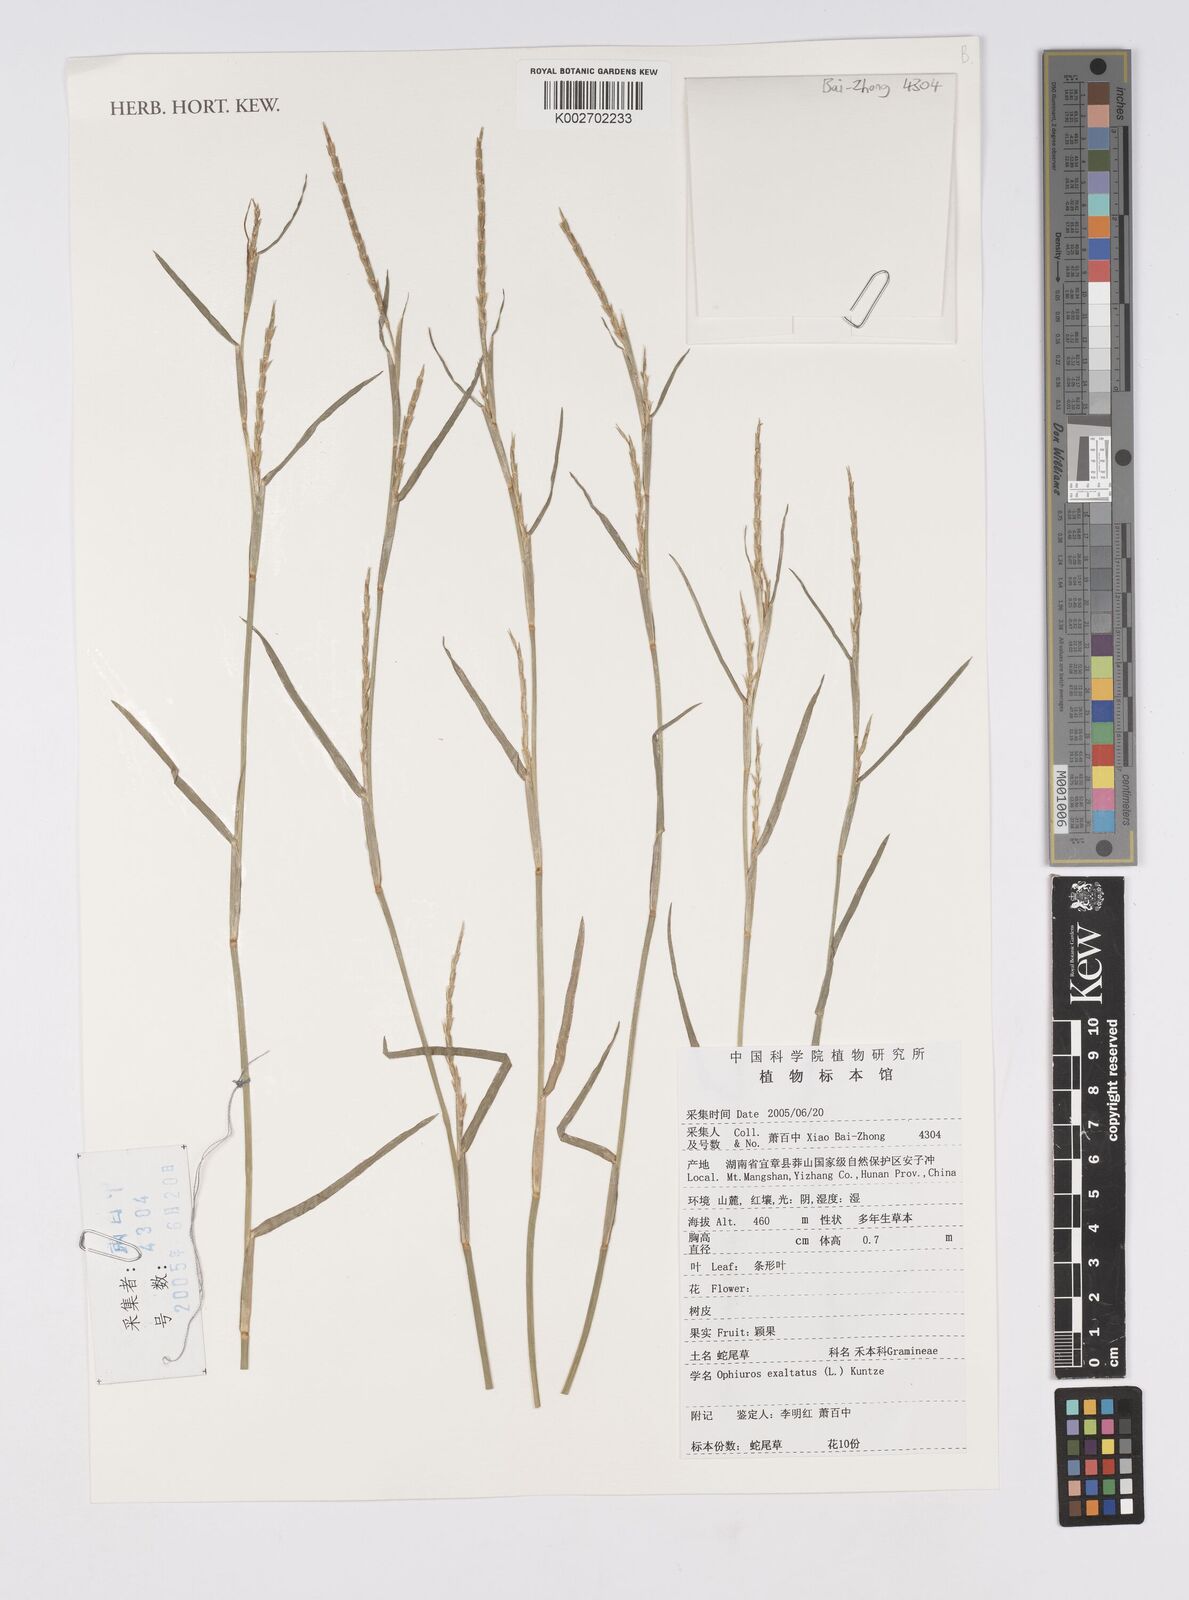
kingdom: Plantae
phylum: Tracheophyta
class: Liliopsida
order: Poales
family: Poaceae
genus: Ophiuros
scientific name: Ophiuros exaltatus
